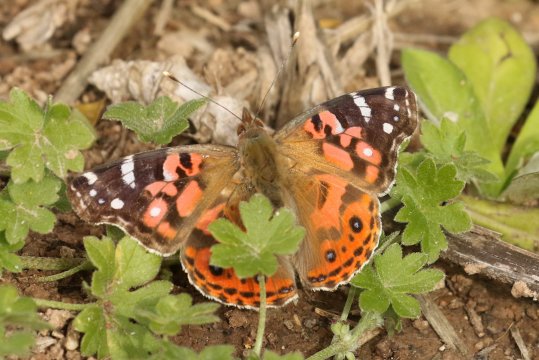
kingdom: Animalia
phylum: Arthropoda
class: Insecta
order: Lepidoptera
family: Nymphalidae
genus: Vanessa
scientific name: Vanessa braziliensis
